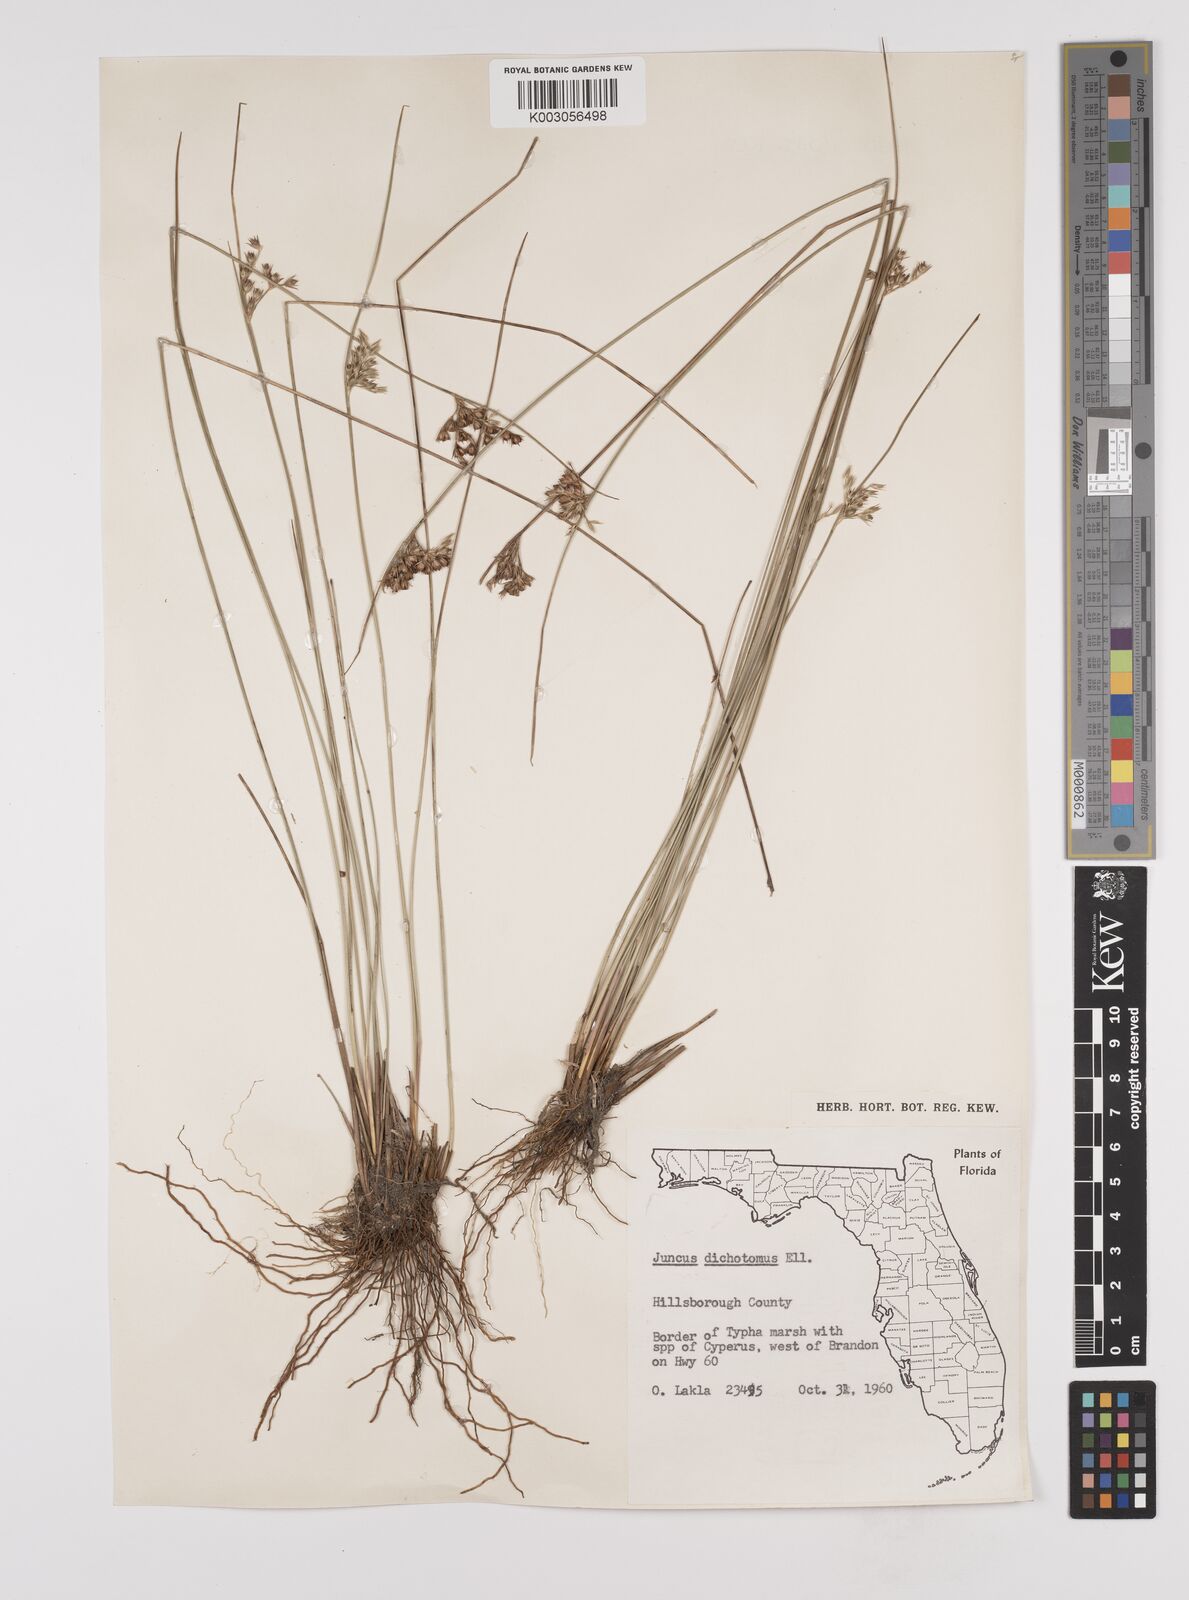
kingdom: Plantae
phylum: Tracheophyta
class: Liliopsida
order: Poales
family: Juncaceae
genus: Juncus
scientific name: Juncus dichotomus
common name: Forked rush
